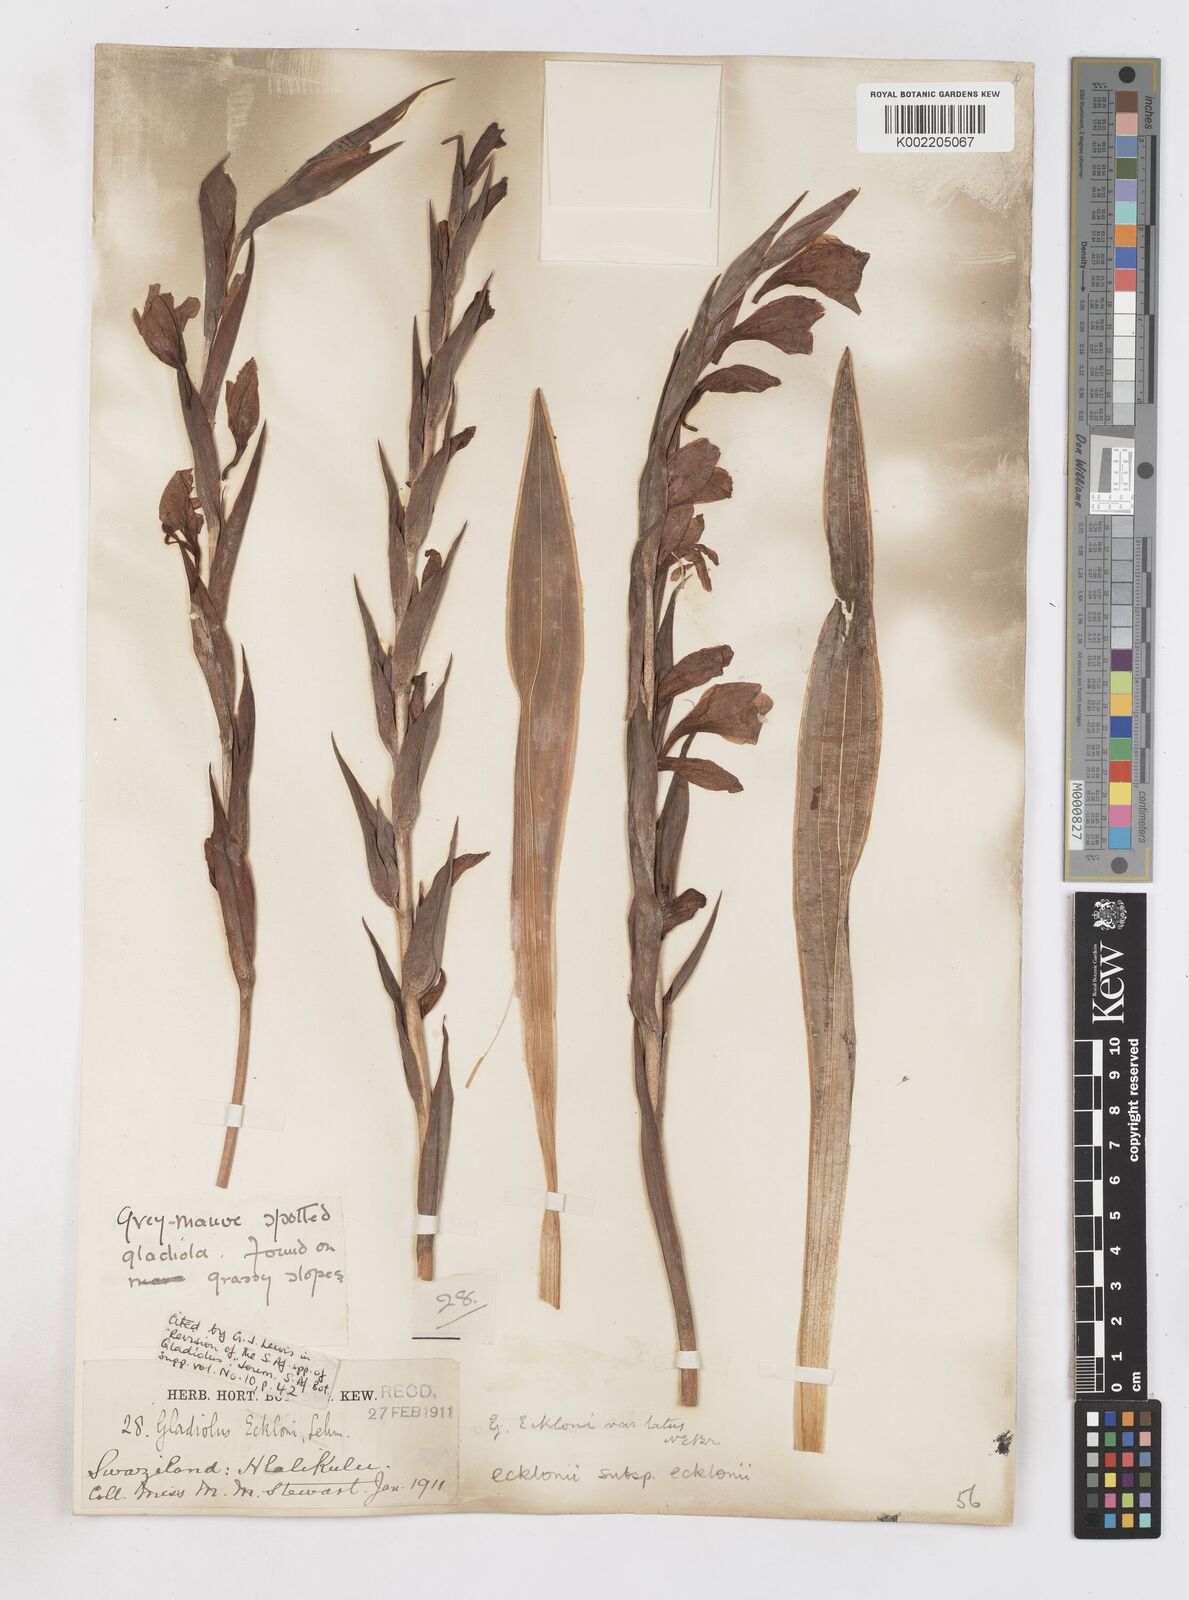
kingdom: Plantae
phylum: Tracheophyta
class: Liliopsida
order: Asparagales
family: Iridaceae
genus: Gladiolus
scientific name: Gladiolus ecklonii
